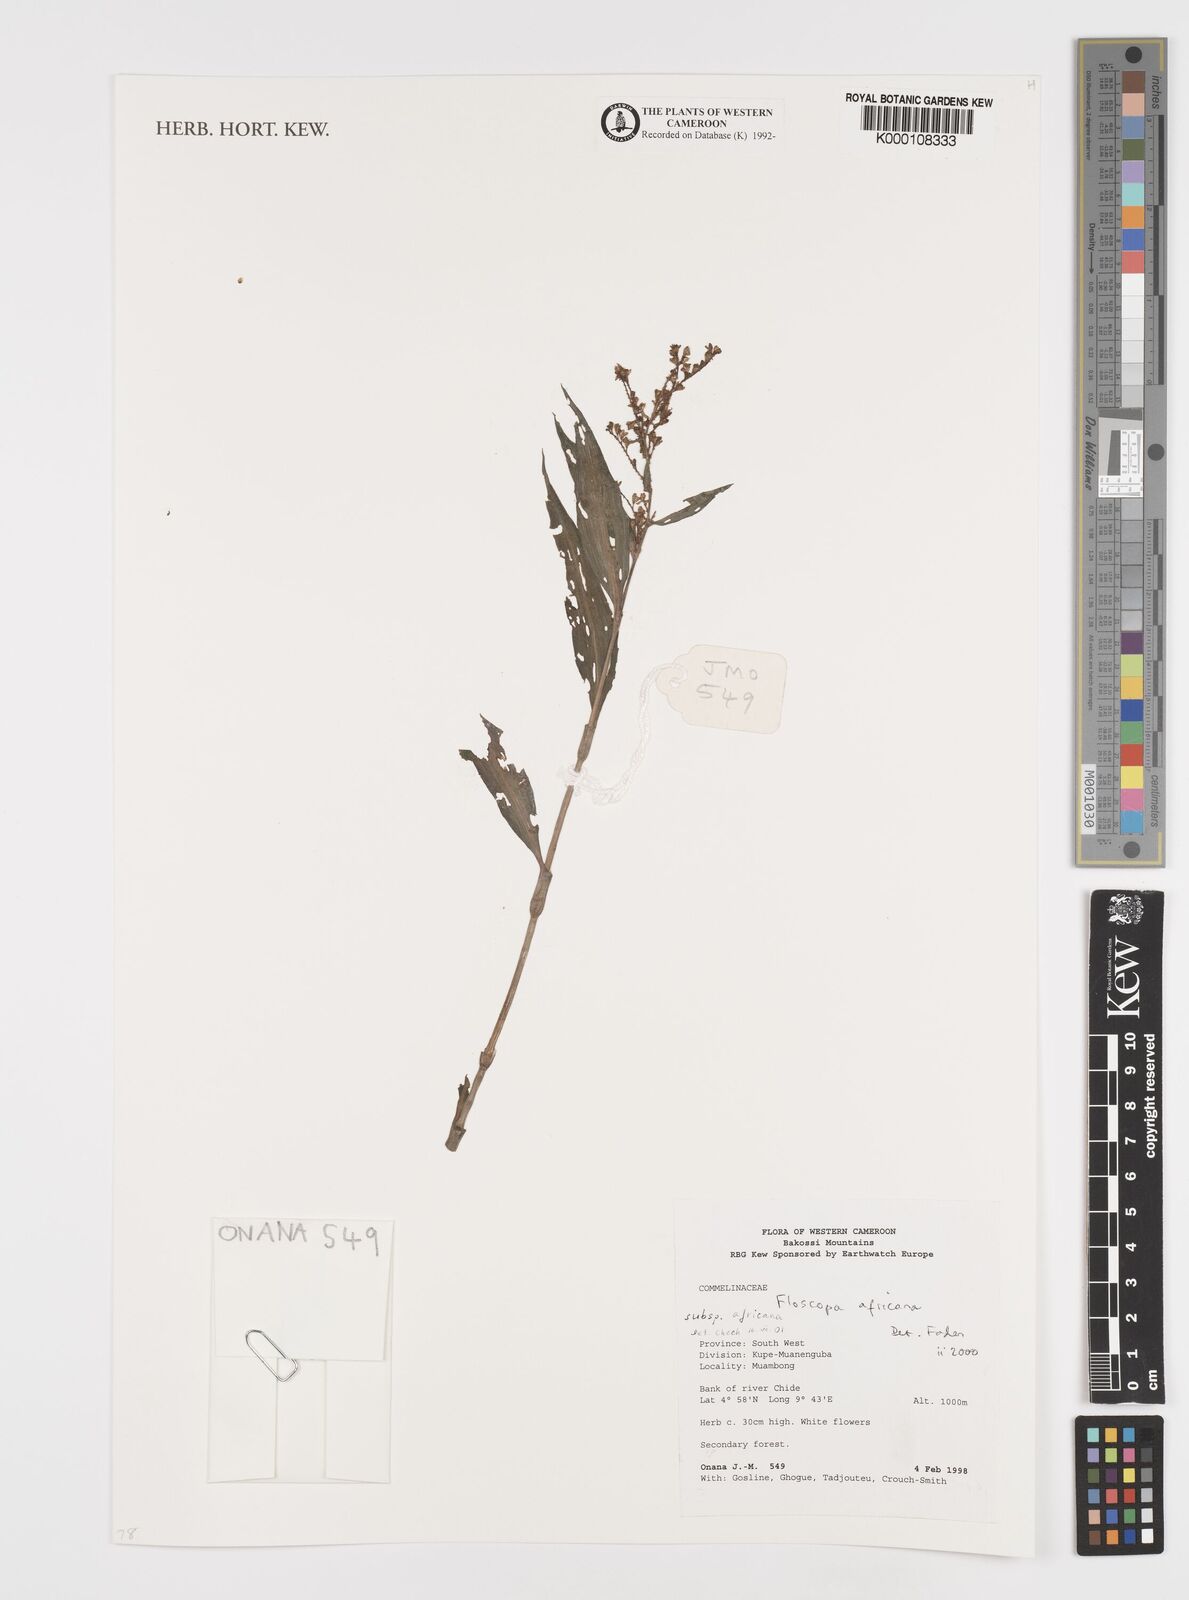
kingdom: Plantae
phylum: Tracheophyta
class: Liliopsida
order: Commelinales
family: Commelinaceae
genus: Floscopa
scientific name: Floscopa africana
